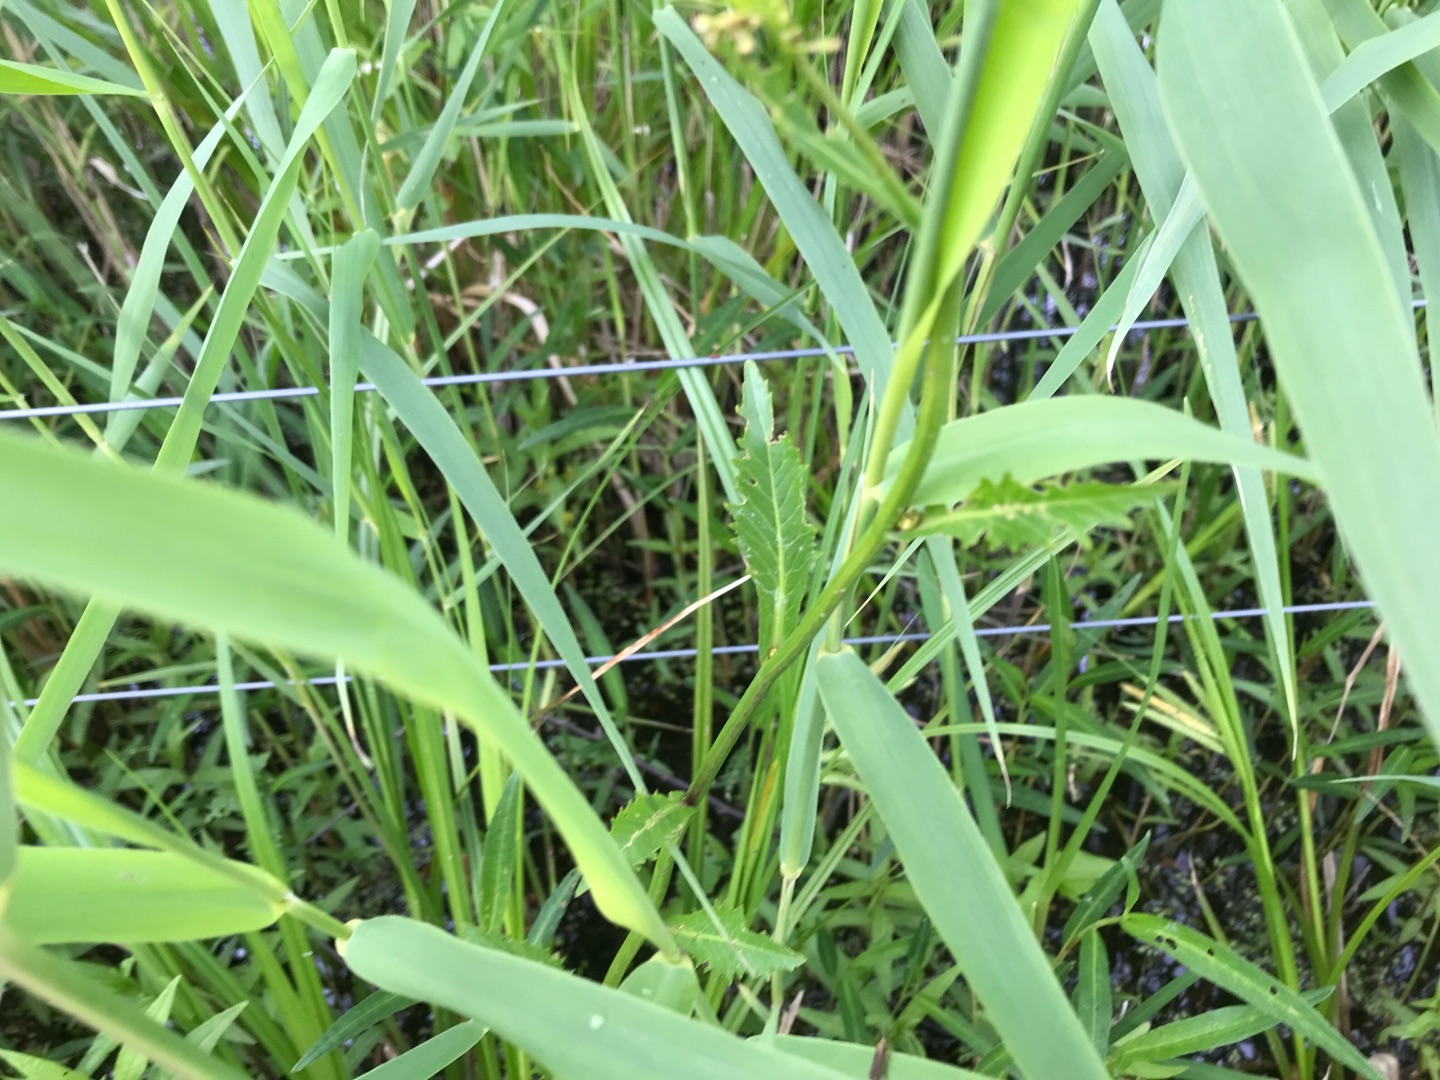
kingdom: Plantae
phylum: Tracheophyta
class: Magnoliopsida
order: Brassicales
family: Brassicaceae
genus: Rorippa
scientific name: Rorippa amphibia
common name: Vandpeberrod
